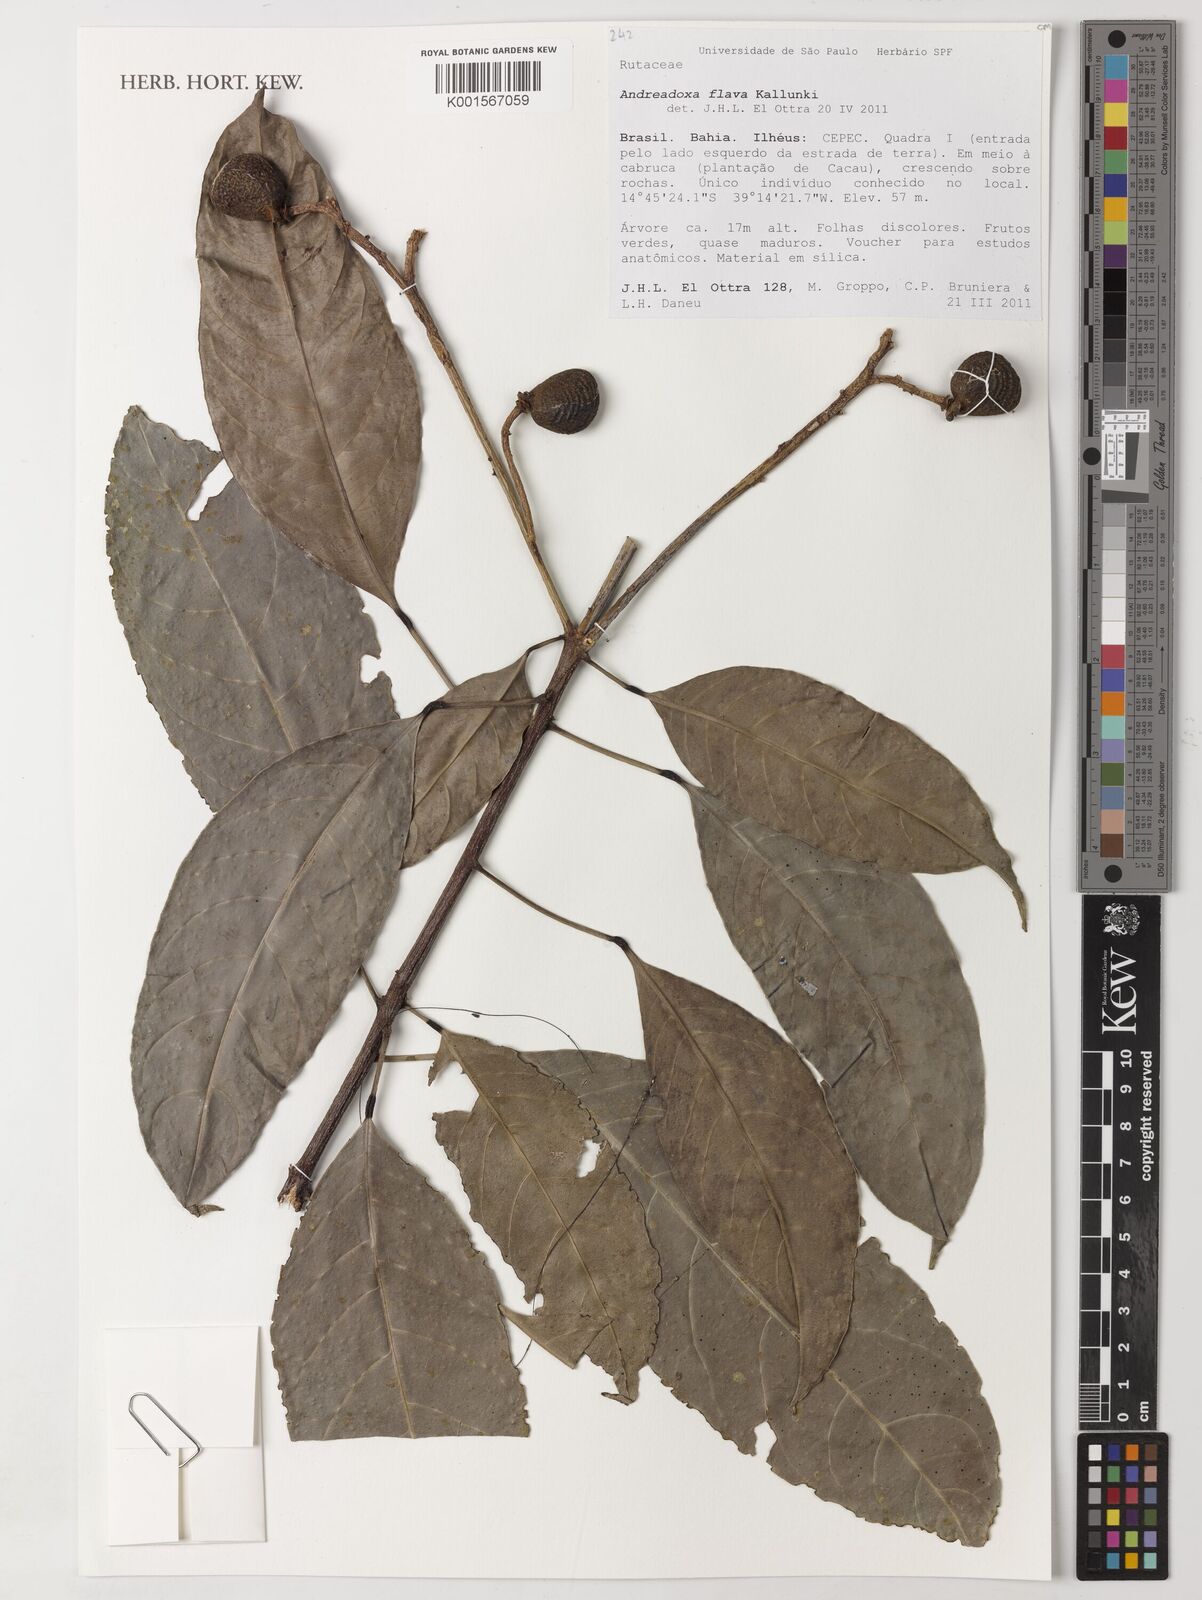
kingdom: Plantae
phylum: Tracheophyta
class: Magnoliopsida
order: Sapindales
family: Rutaceae
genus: Andreadoxa
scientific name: Andreadoxa flava
